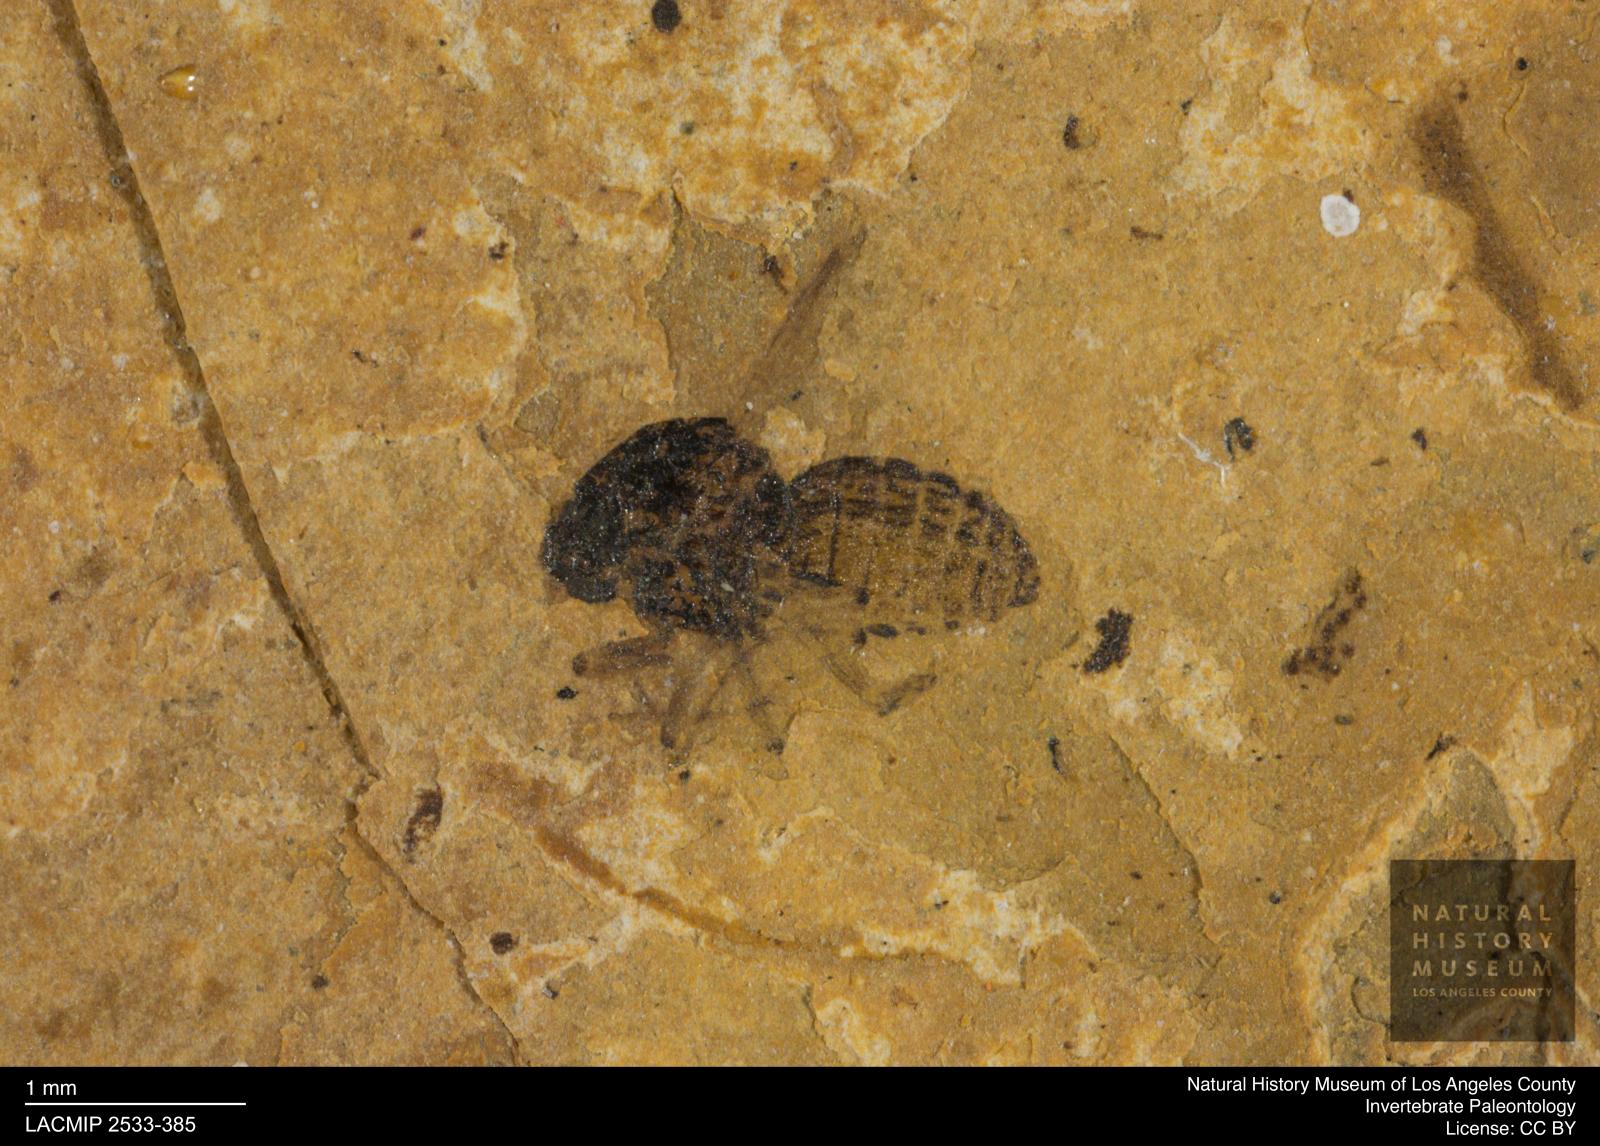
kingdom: Animalia
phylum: Arthropoda
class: Insecta
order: Diptera
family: Ceratopogonidae
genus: Culicoides
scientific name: Culicoides obscuratus
